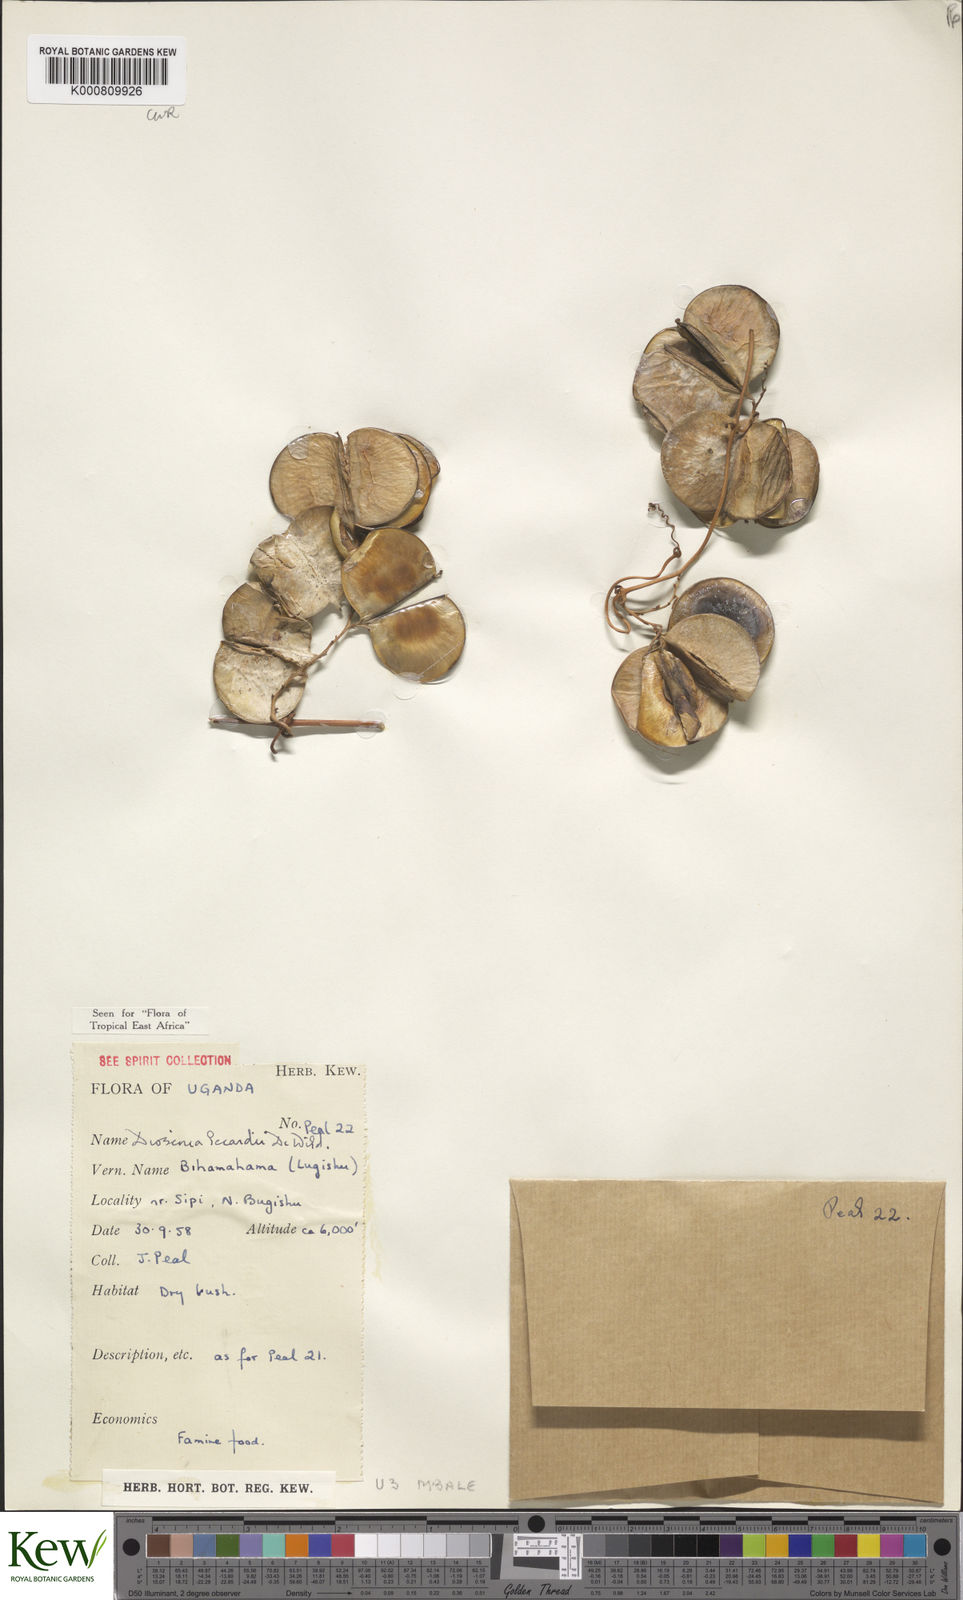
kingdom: Plantae
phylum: Tracheophyta
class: Liliopsida
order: Dioscoreales
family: Dioscoreaceae
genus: Dioscorea
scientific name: Dioscorea sagittifolia
